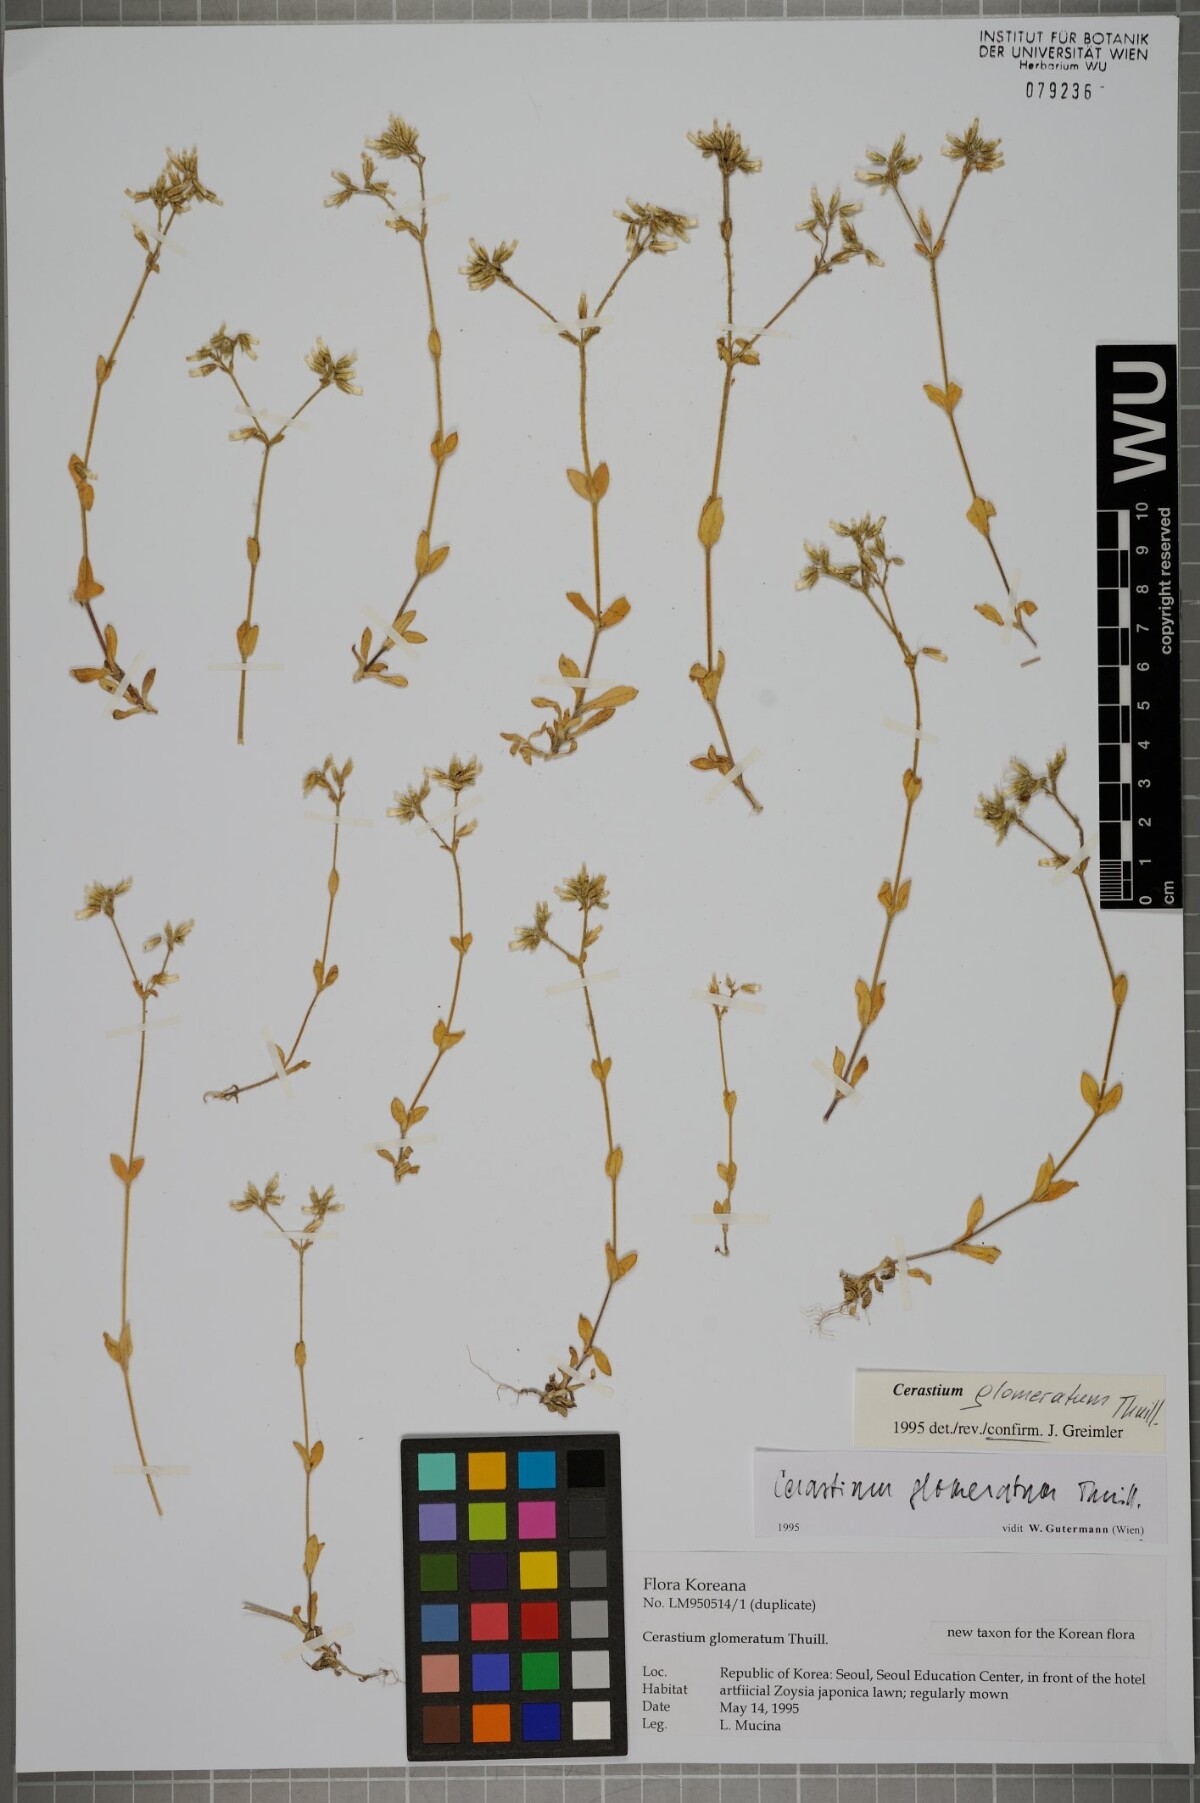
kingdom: Plantae
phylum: Tracheophyta
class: Magnoliopsida
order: Caryophyllales
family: Caryophyllaceae
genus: Cerastium
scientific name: Cerastium glomeratum
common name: Sticky chickweed
